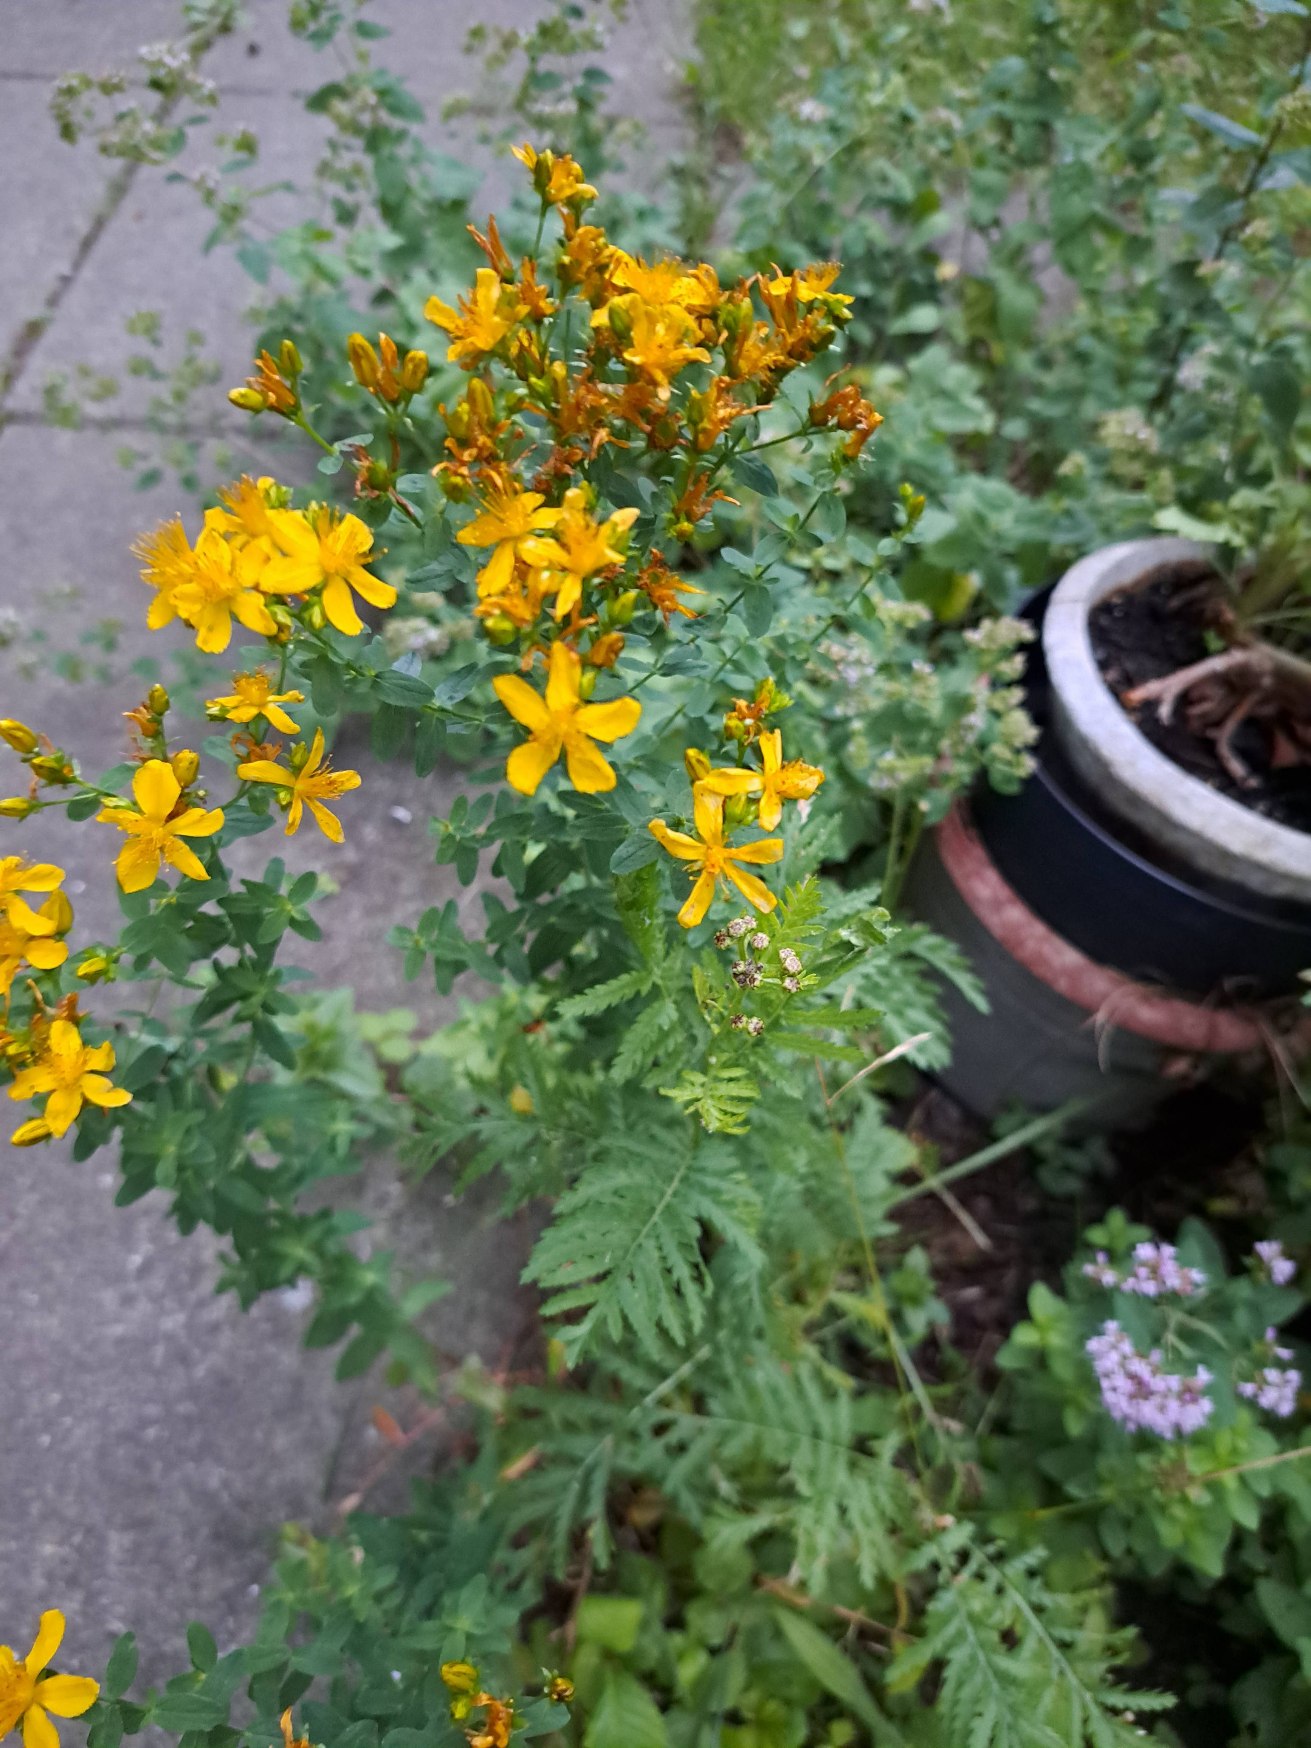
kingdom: Plantae
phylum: Tracheophyta
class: Magnoliopsida
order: Malpighiales
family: Hypericaceae
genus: Hypericum
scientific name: Hypericum perforatum
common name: Prikbladet perikon
